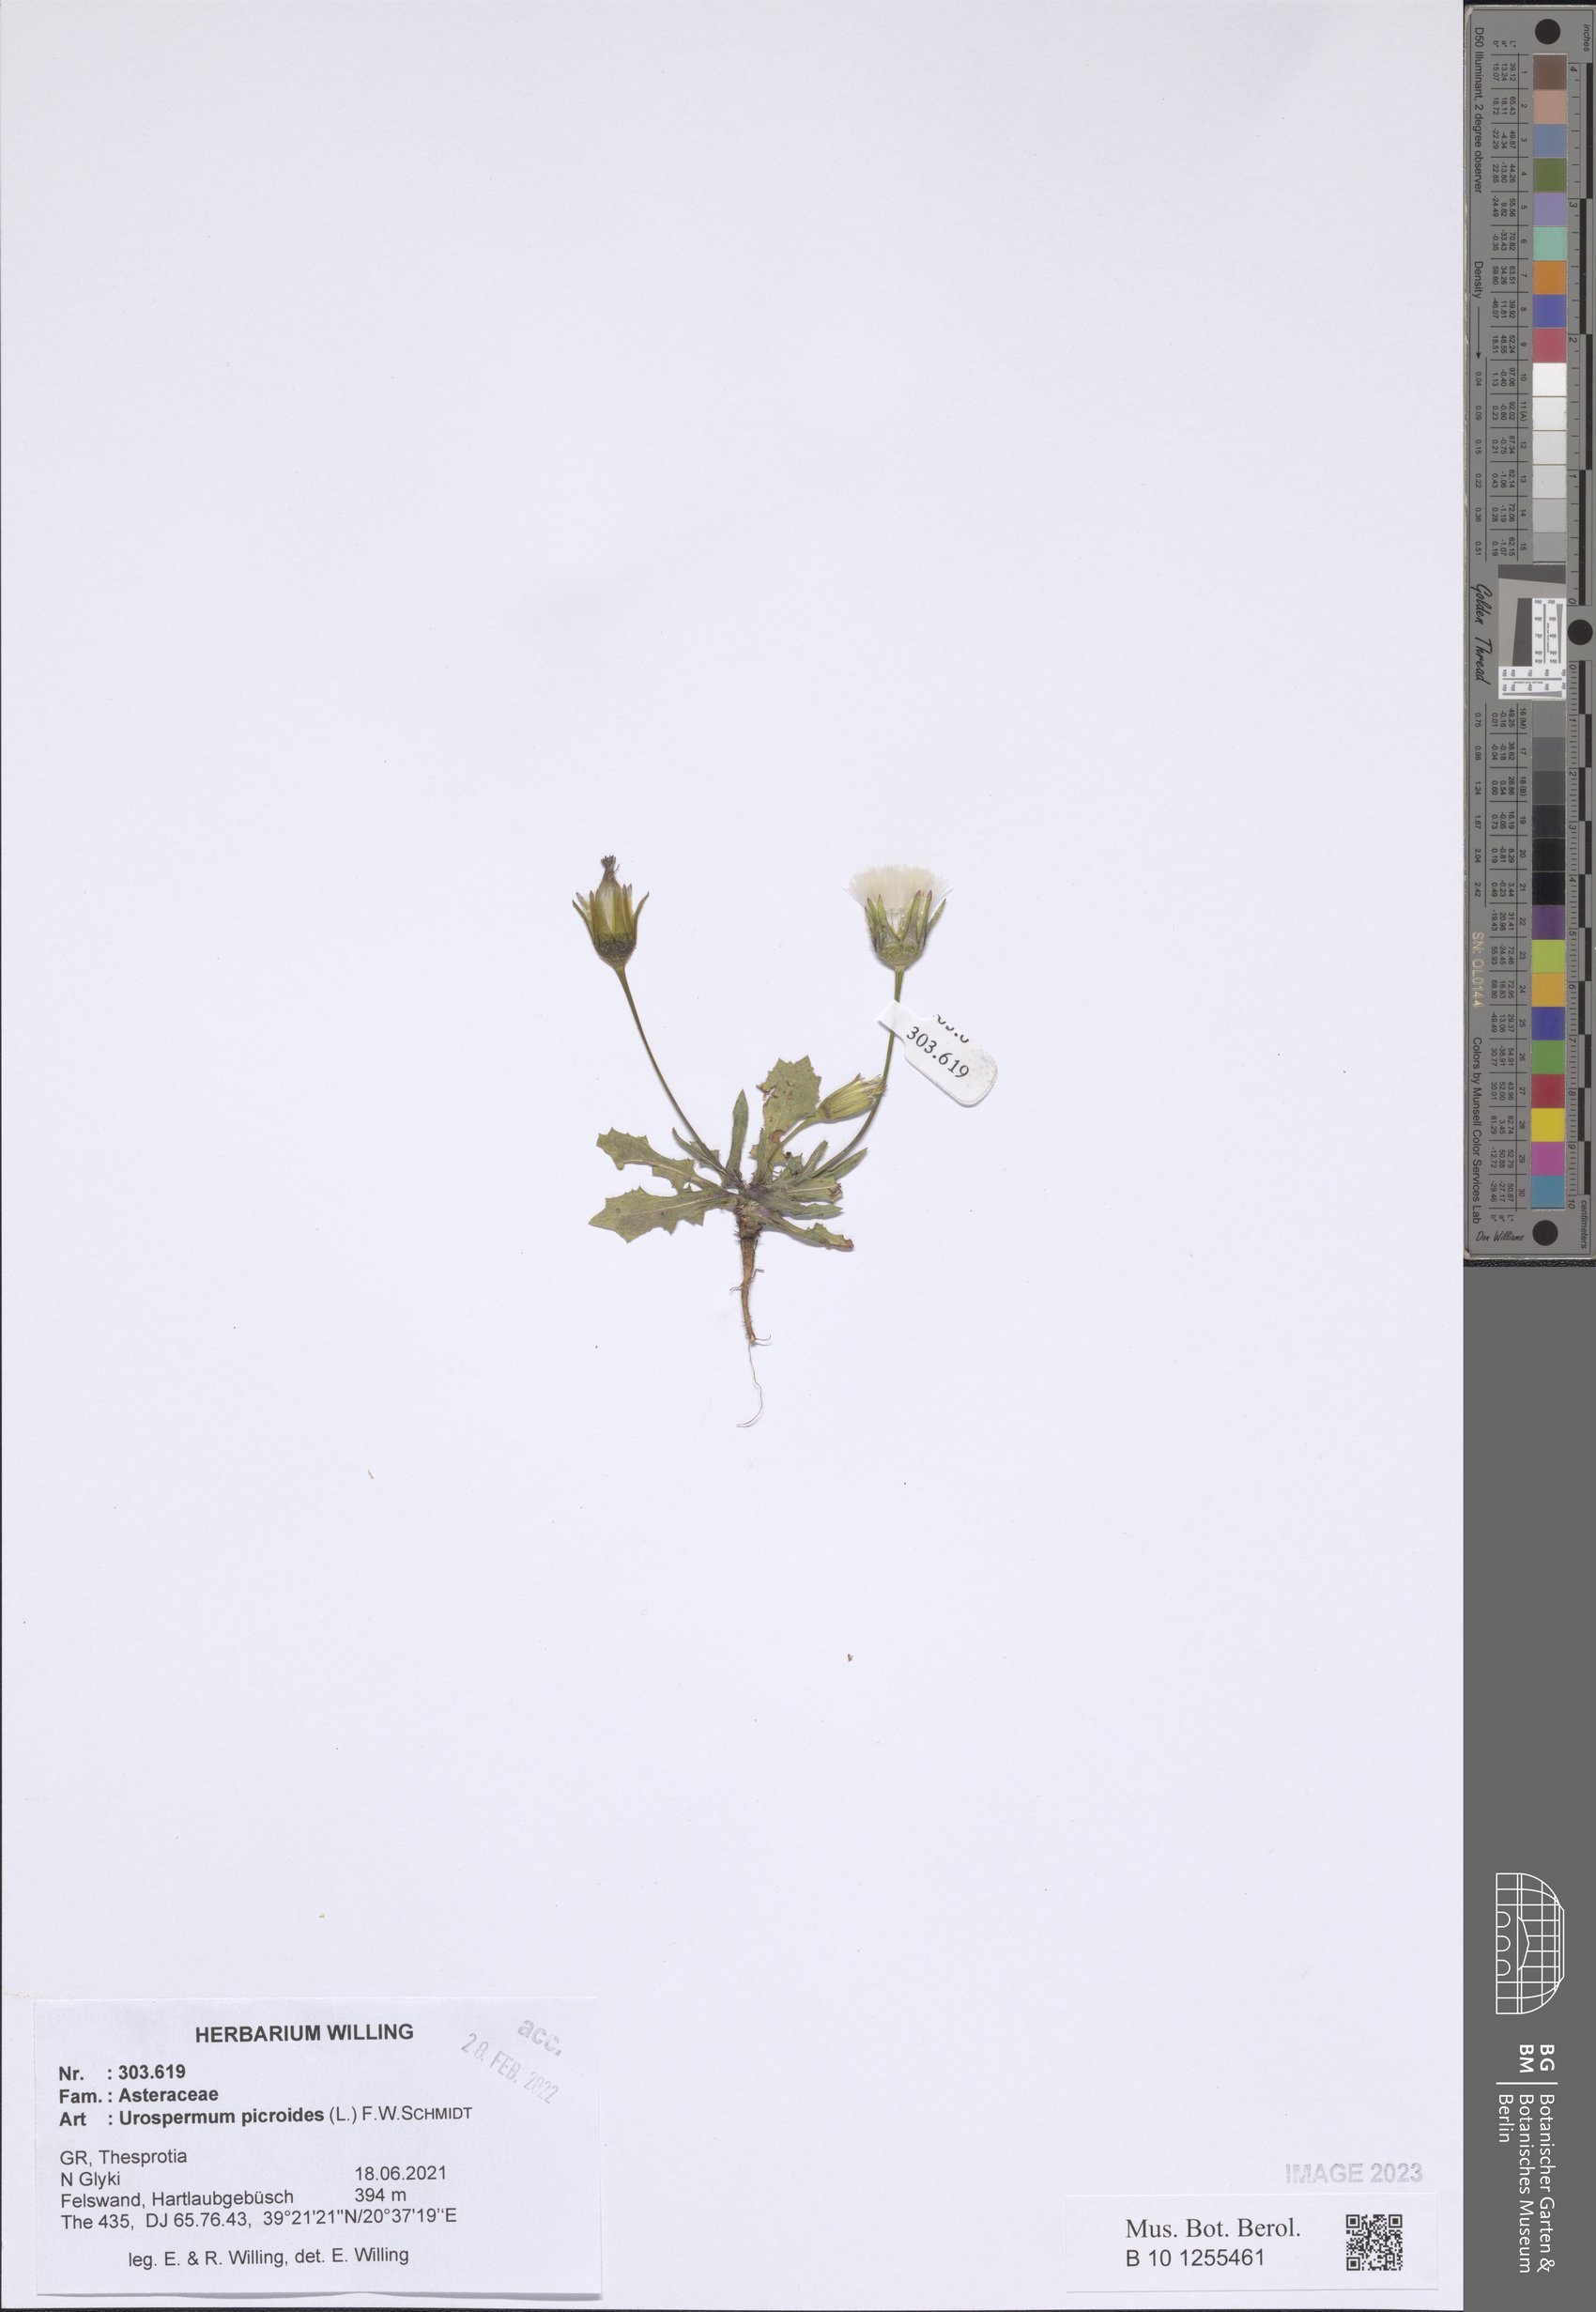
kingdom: Plantae
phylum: Tracheophyta
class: Magnoliopsida
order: Asterales
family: Asteraceae
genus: Urospermum
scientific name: Urospermum picroides
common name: False hawkbit
